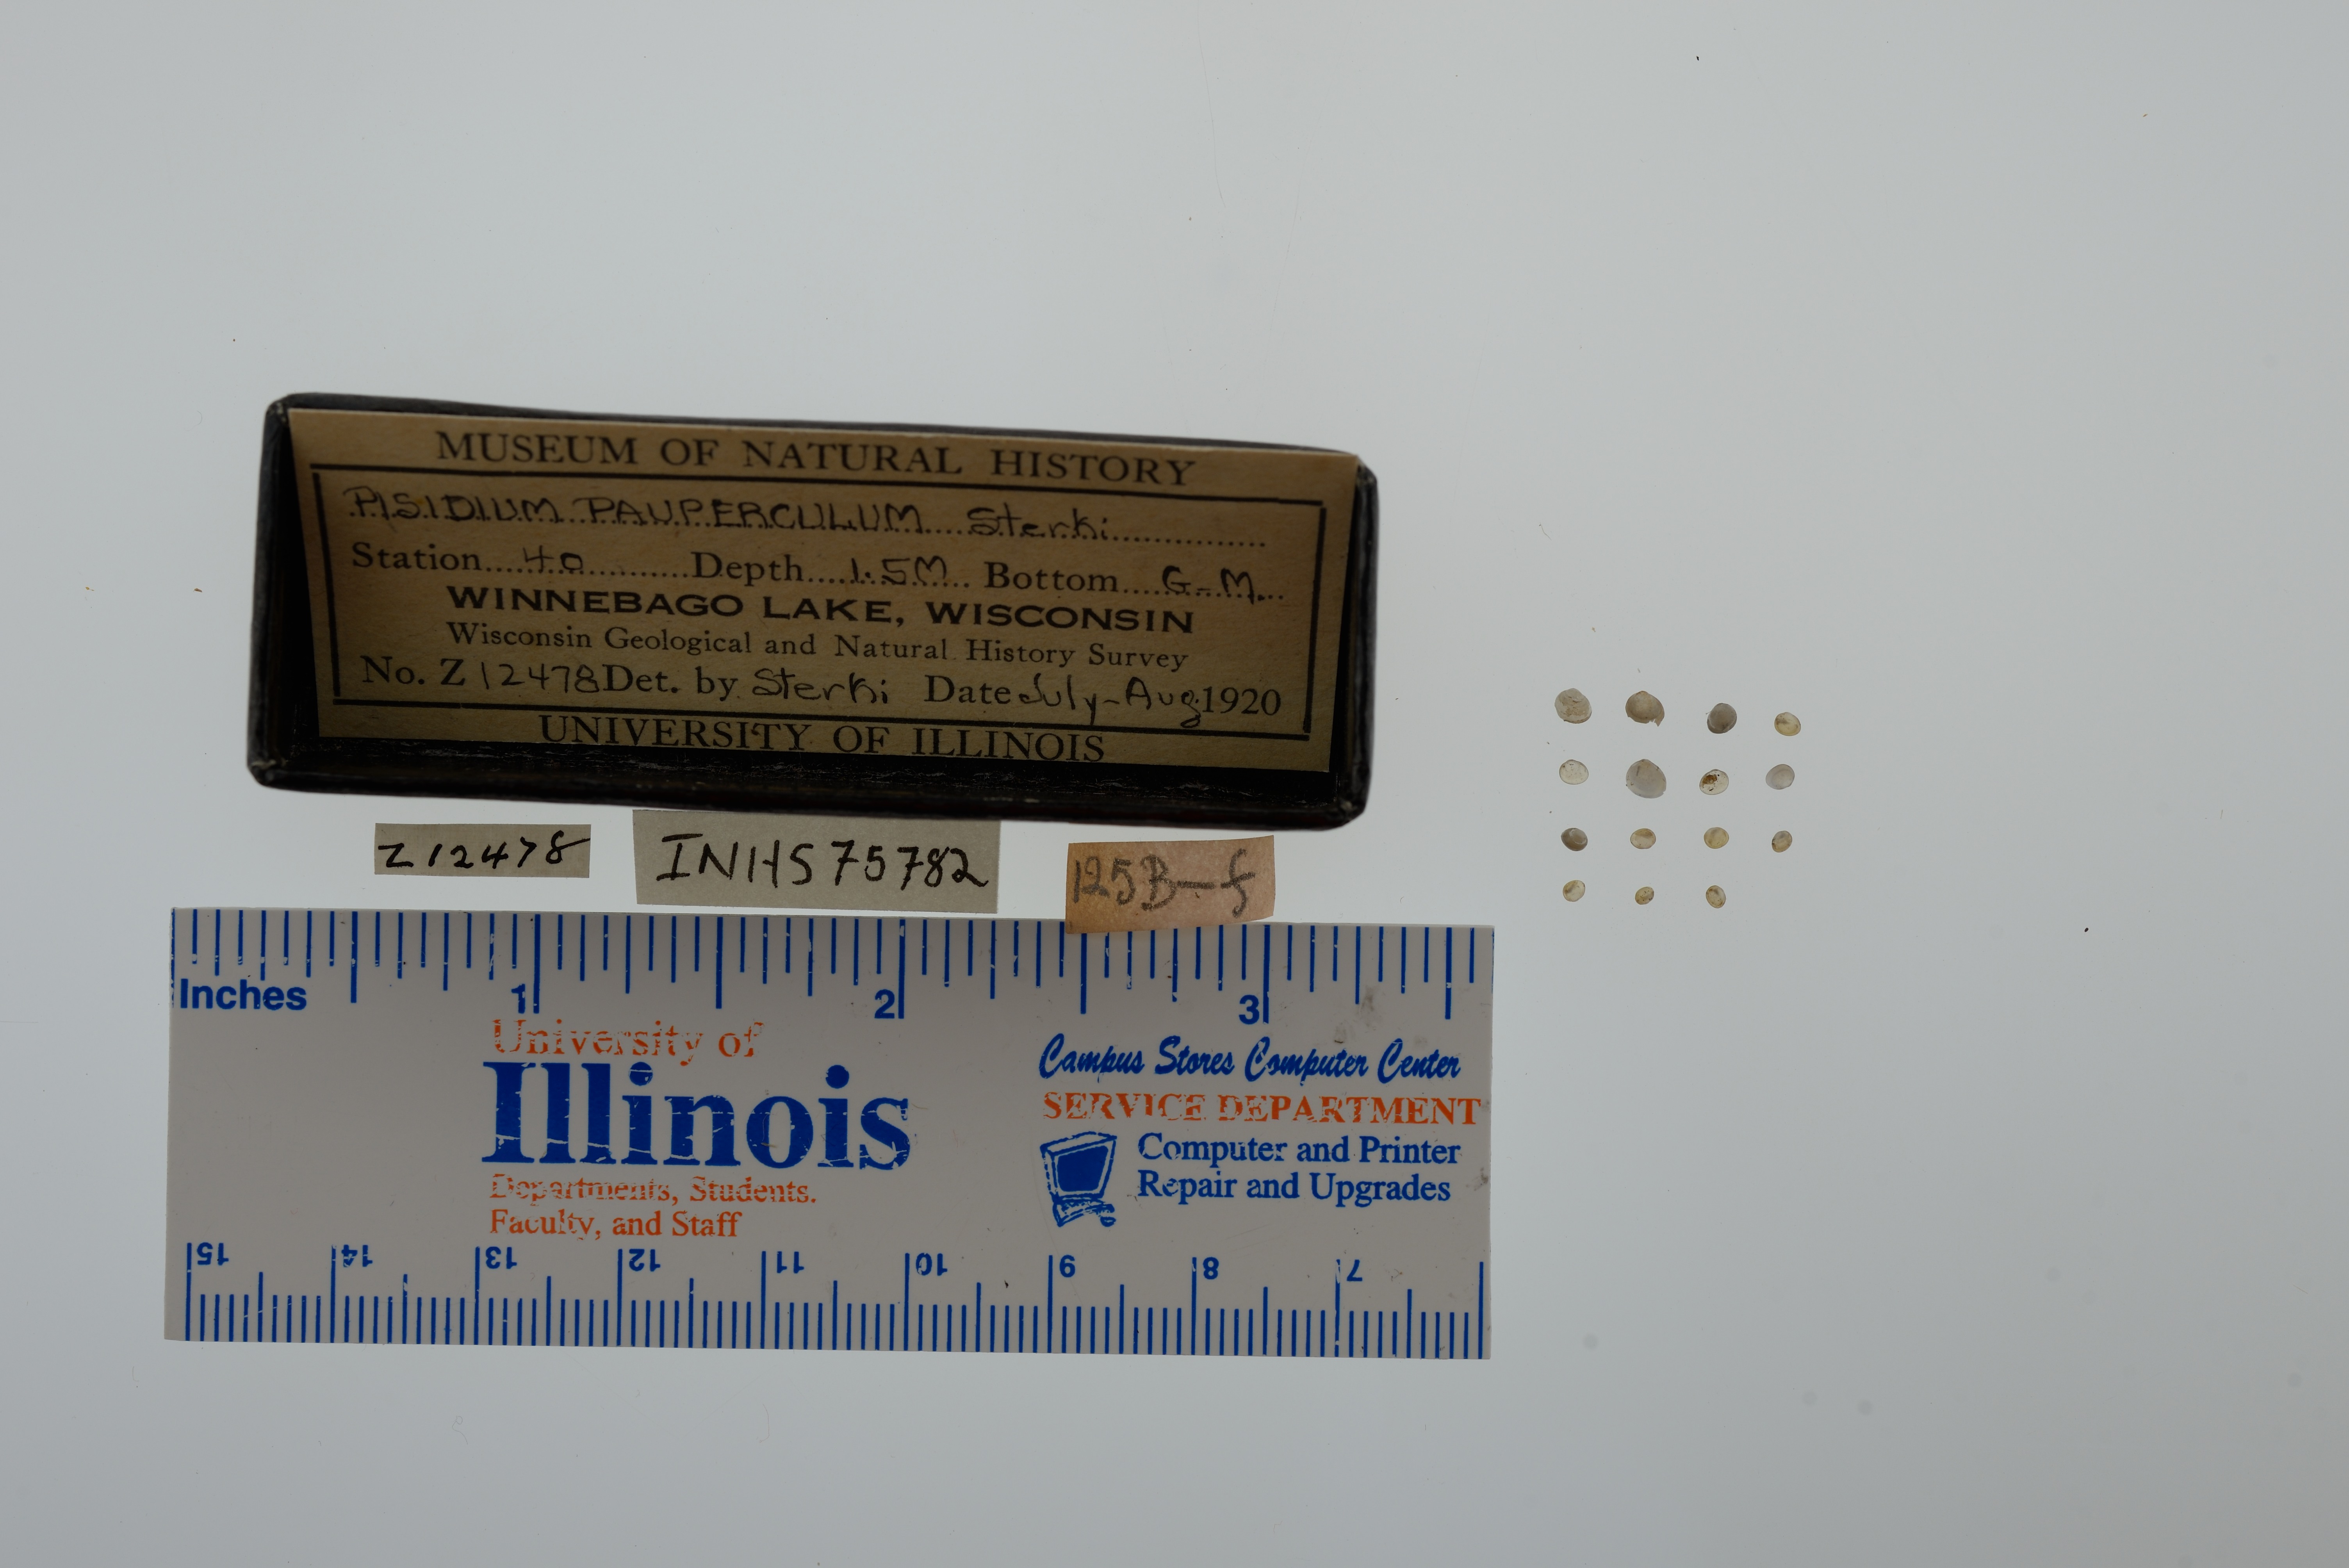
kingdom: Animalia
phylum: Mollusca
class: Bivalvia
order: Sphaeriida
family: Sphaeriidae
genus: Euglesa
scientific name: Euglesa nitida
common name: Shining peaclam
